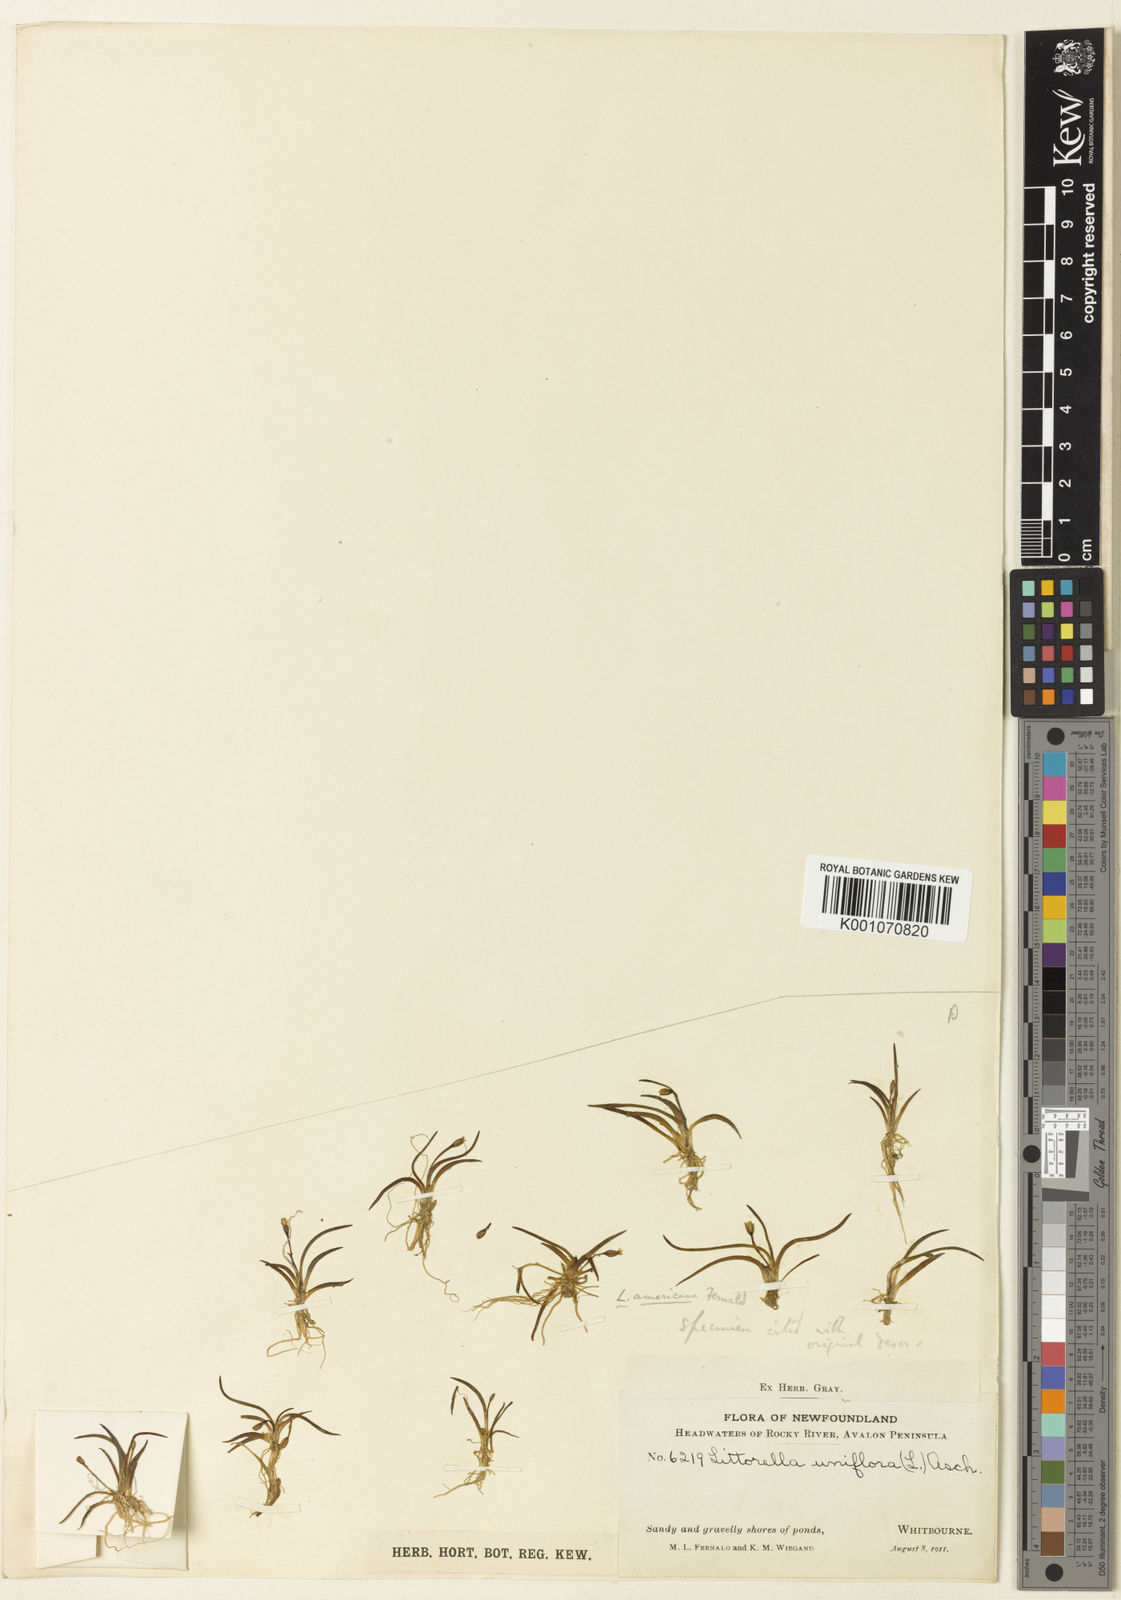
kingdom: Plantae
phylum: Tracheophyta
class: Magnoliopsida
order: Lamiales
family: Plantaginaceae
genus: Littorella
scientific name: Littorella americana
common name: American littorella
